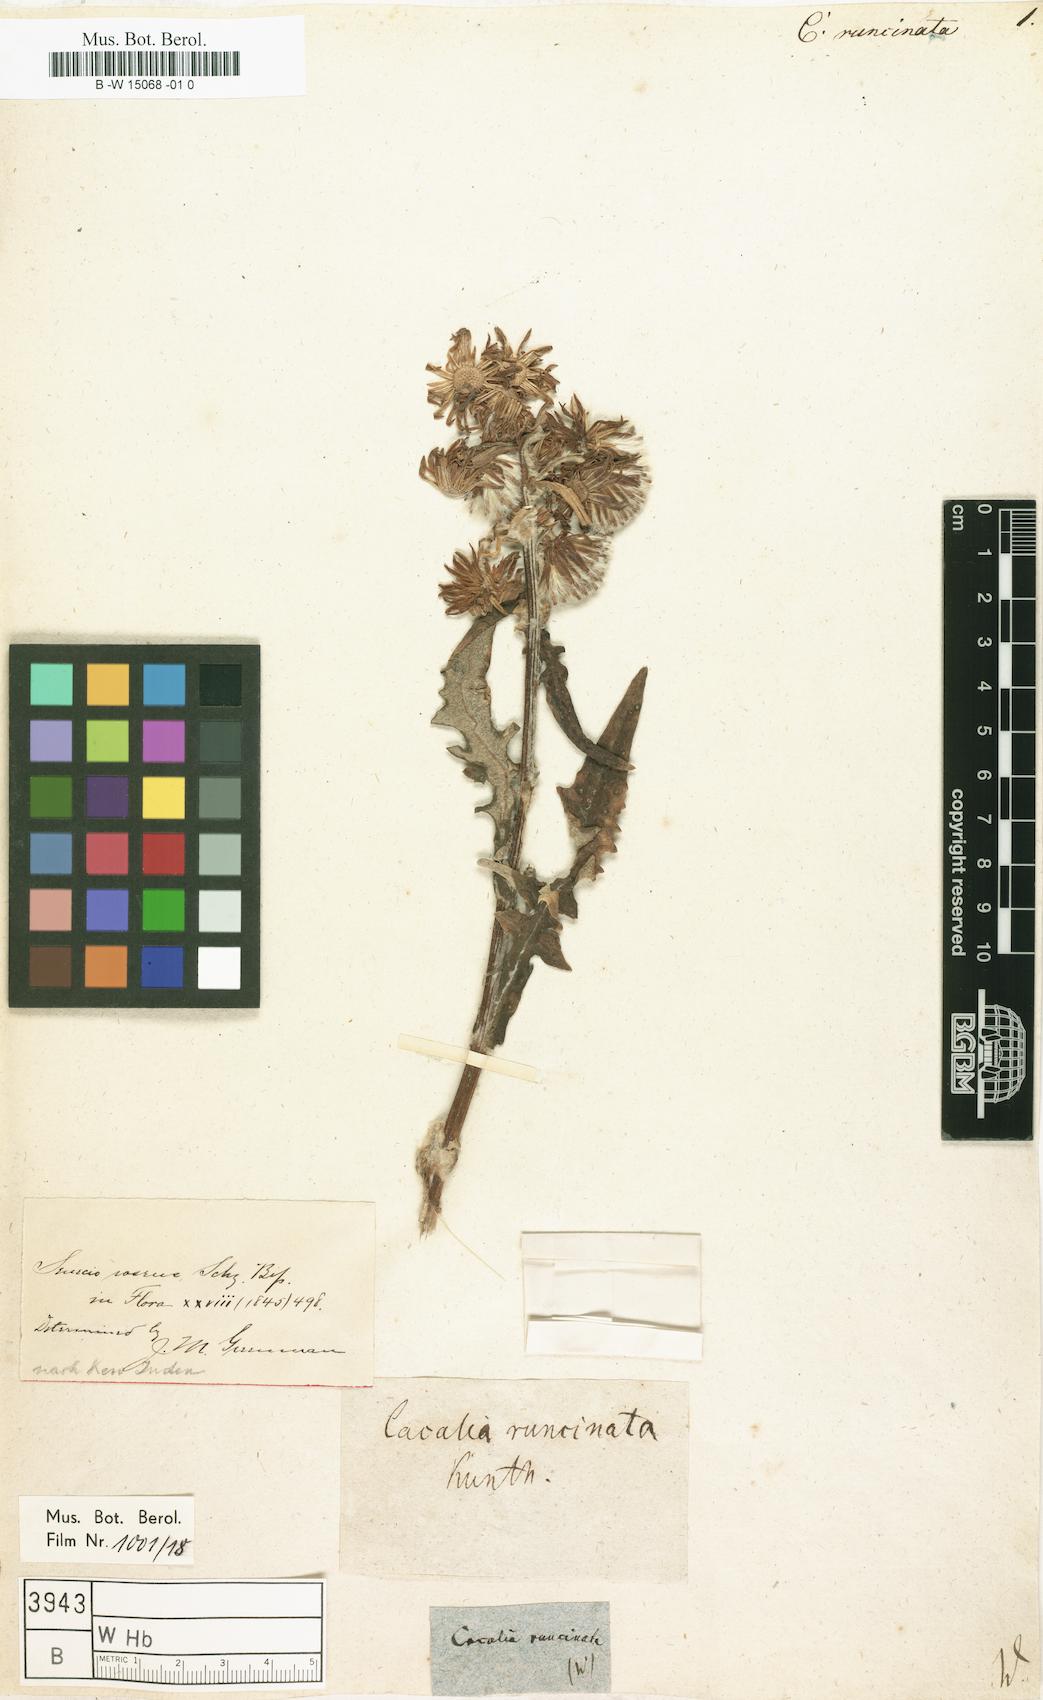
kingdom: Plantae
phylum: Tracheophyta
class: Magnoliopsida
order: Asterales
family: Asteraceae
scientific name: Asteraceae
